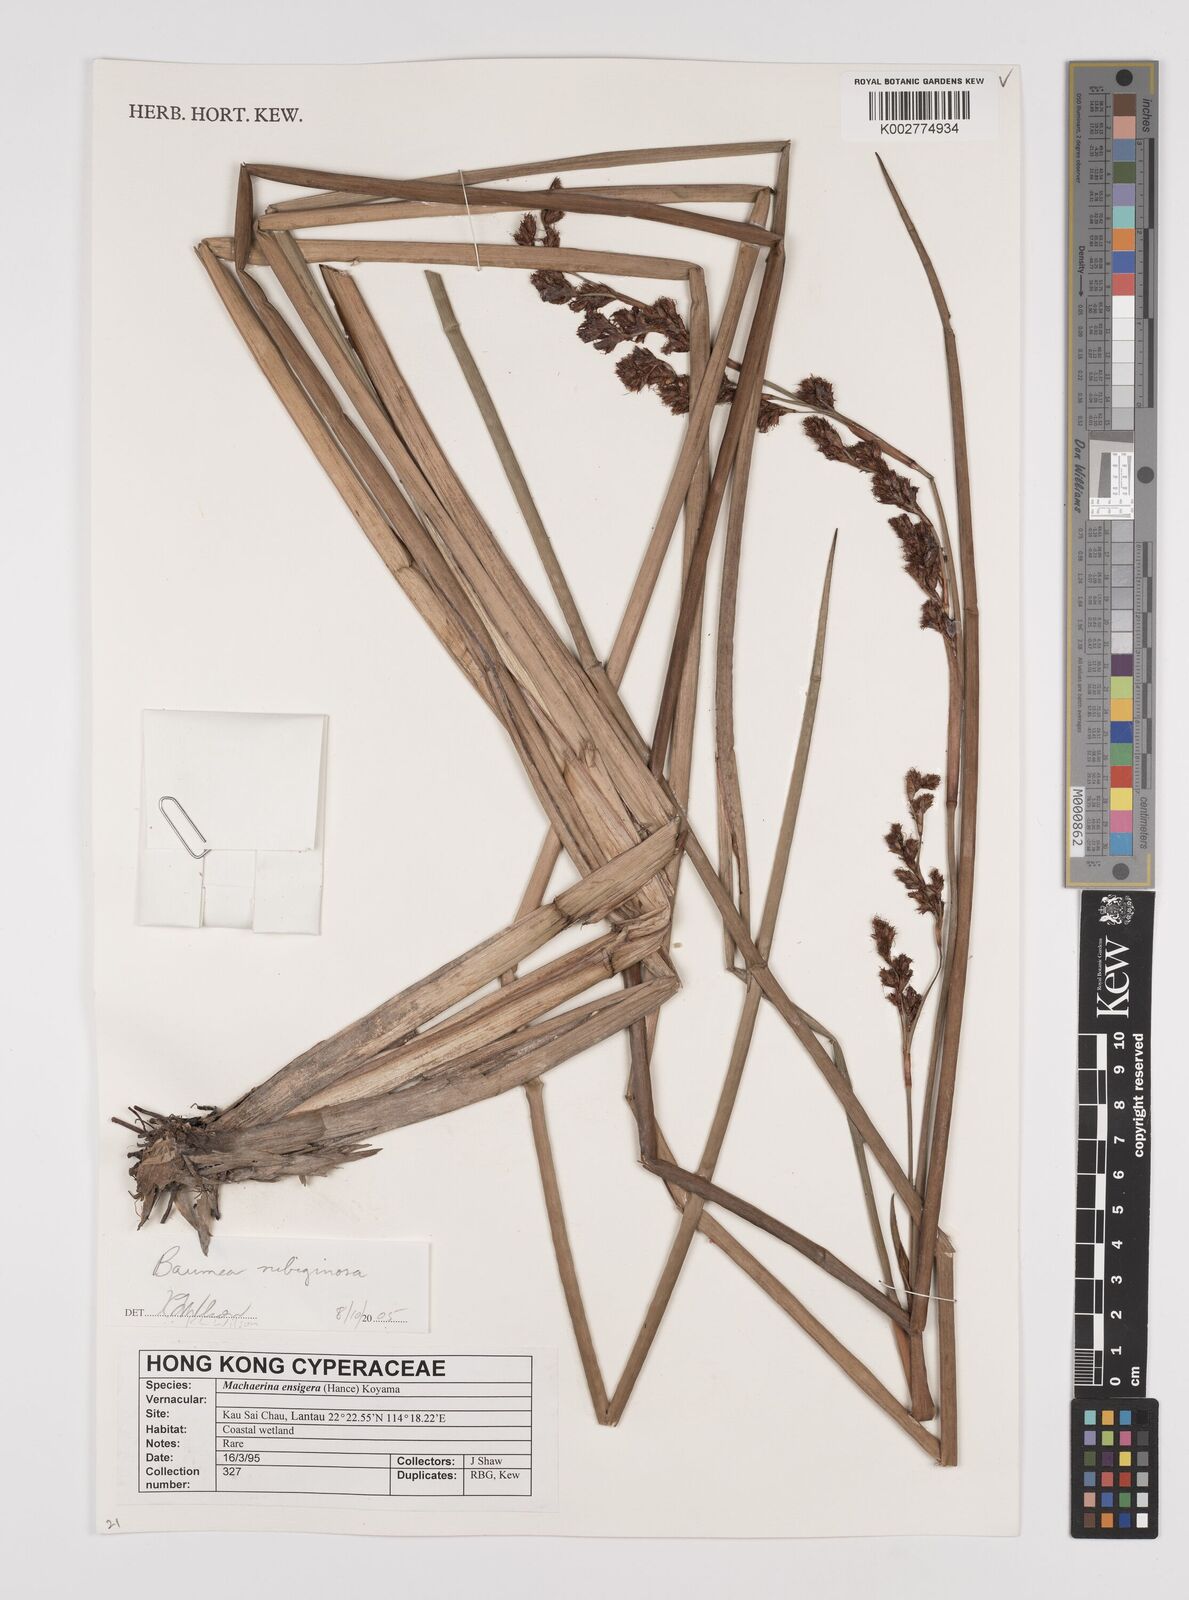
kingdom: Plantae
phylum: Tracheophyta
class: Liliopsida
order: Poales
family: Cyperaceae
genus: Machaerina
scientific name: Machaerina rubiginosa
